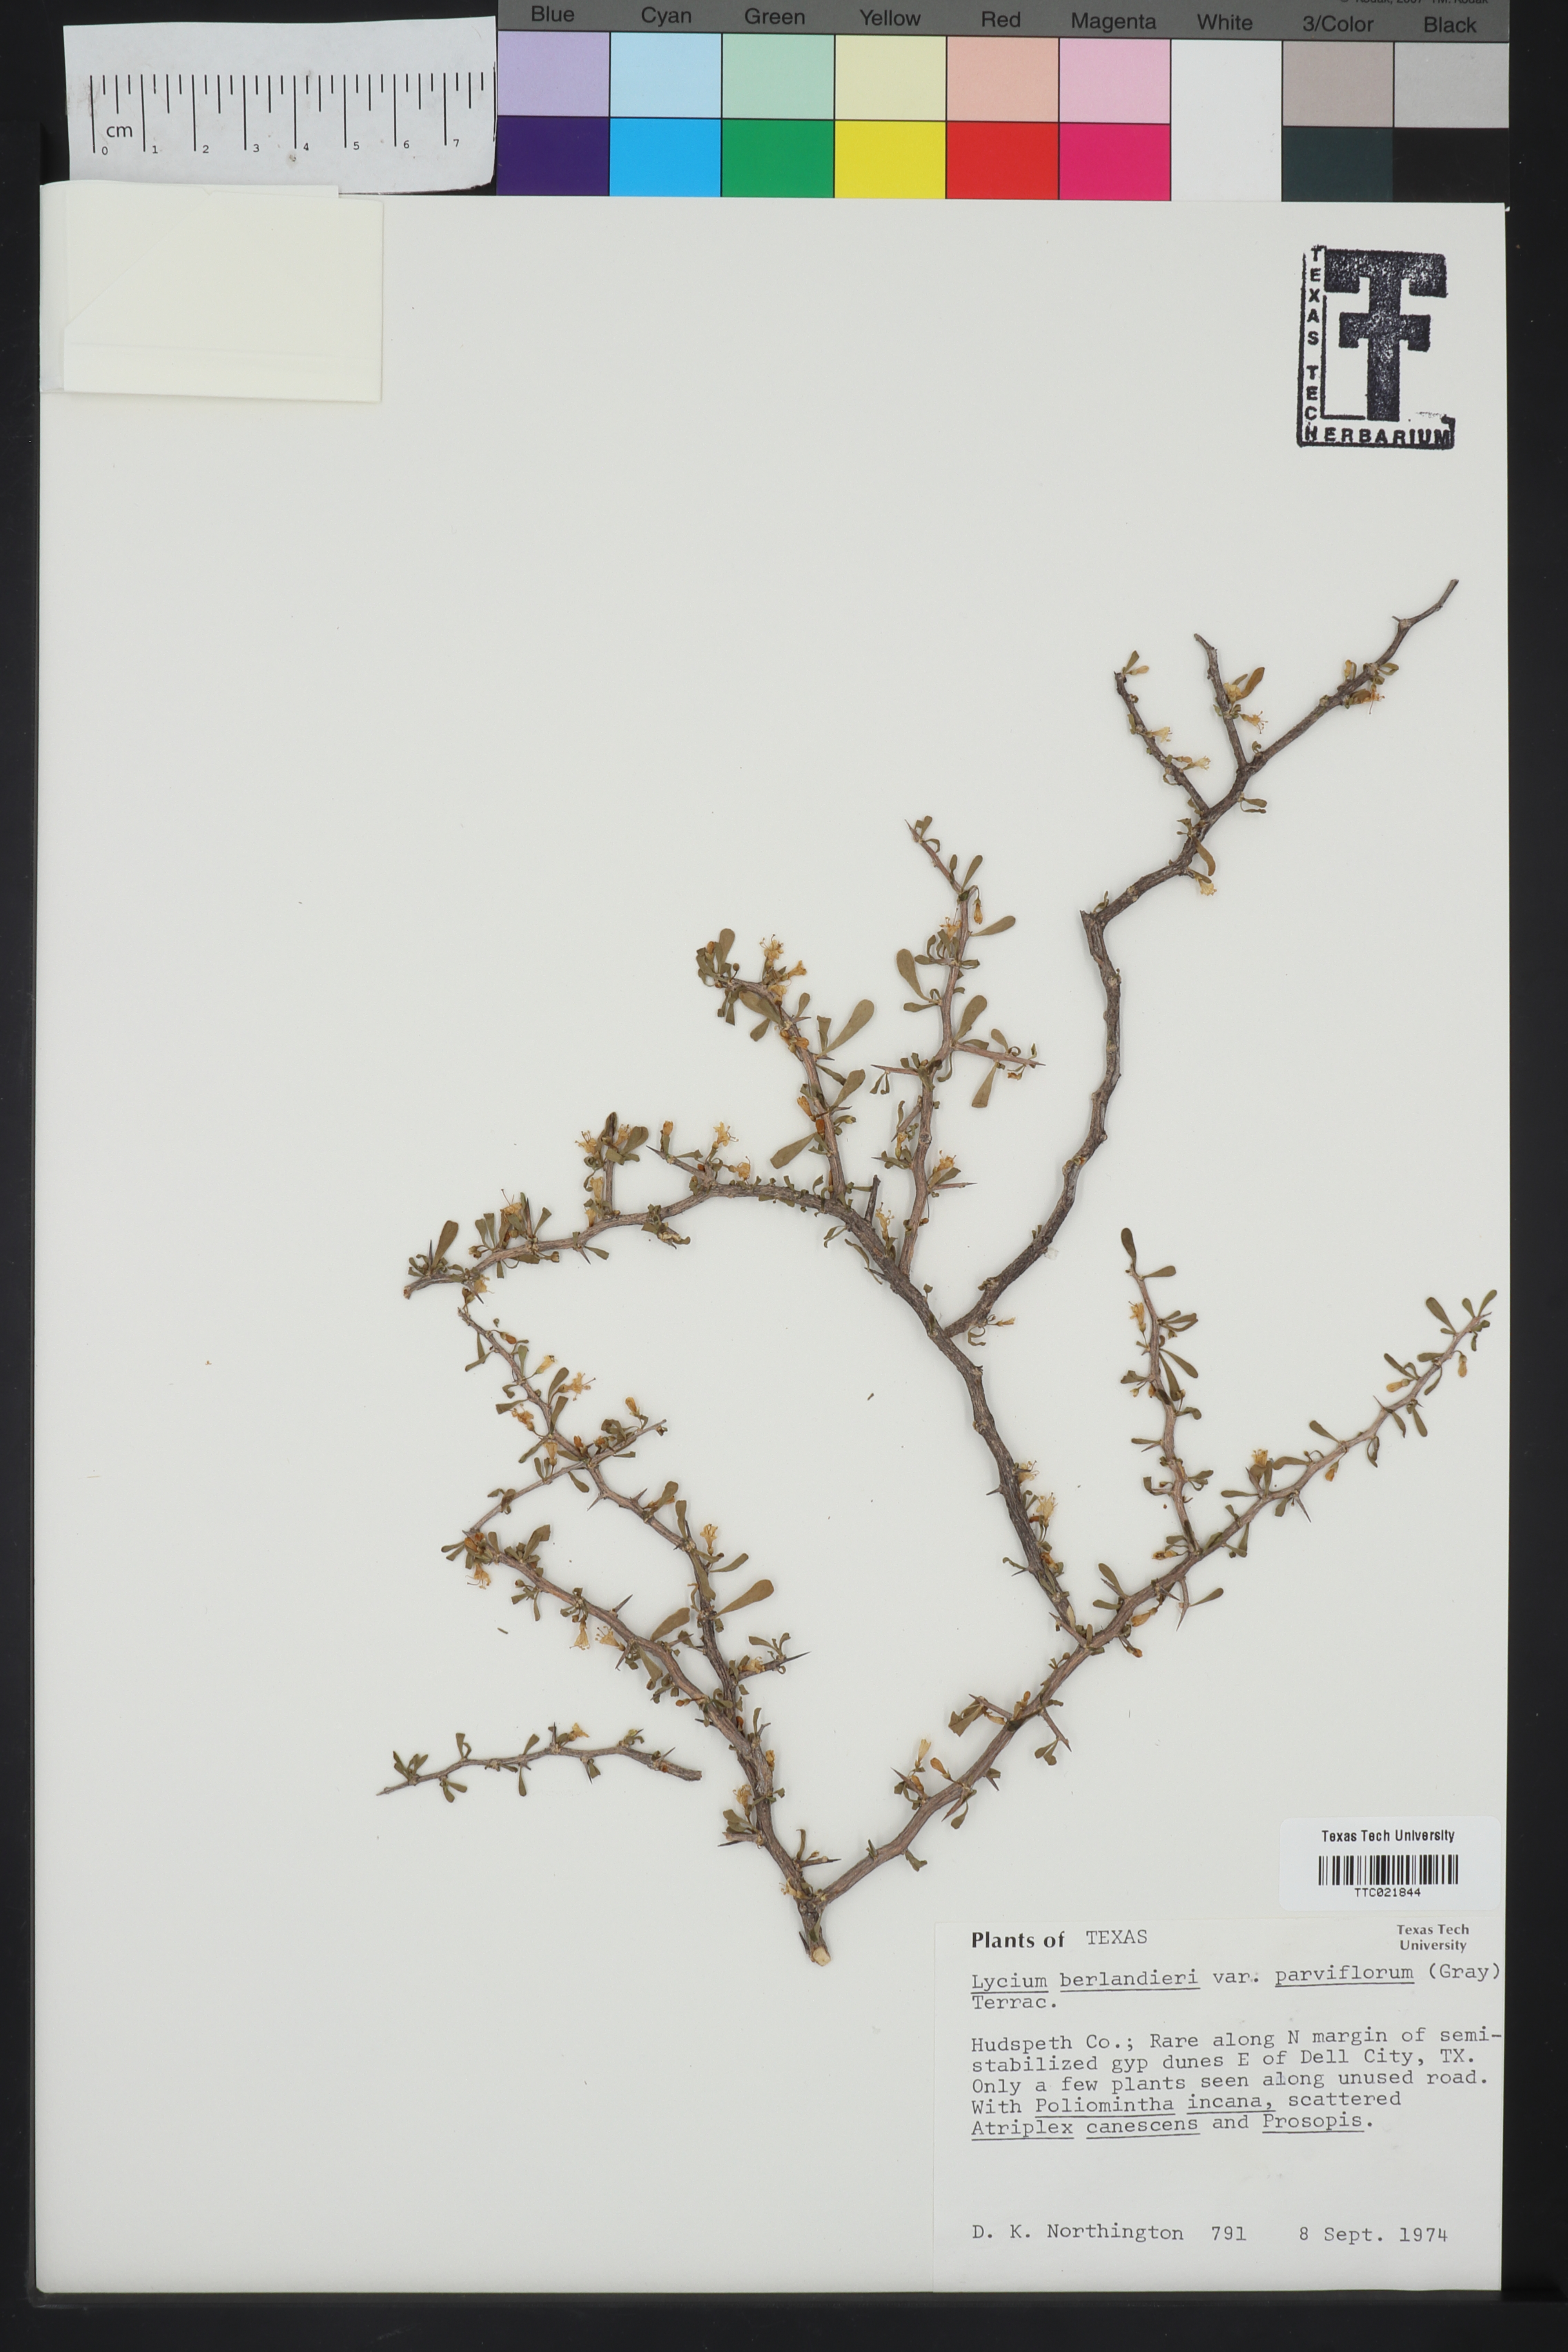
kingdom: Plantae
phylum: Tracheophyta
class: Magnoliopsida
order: Solanales
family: Solanaceae
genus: Lycium
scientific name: Lycium berlandieri
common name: Berlandier wolfberry
